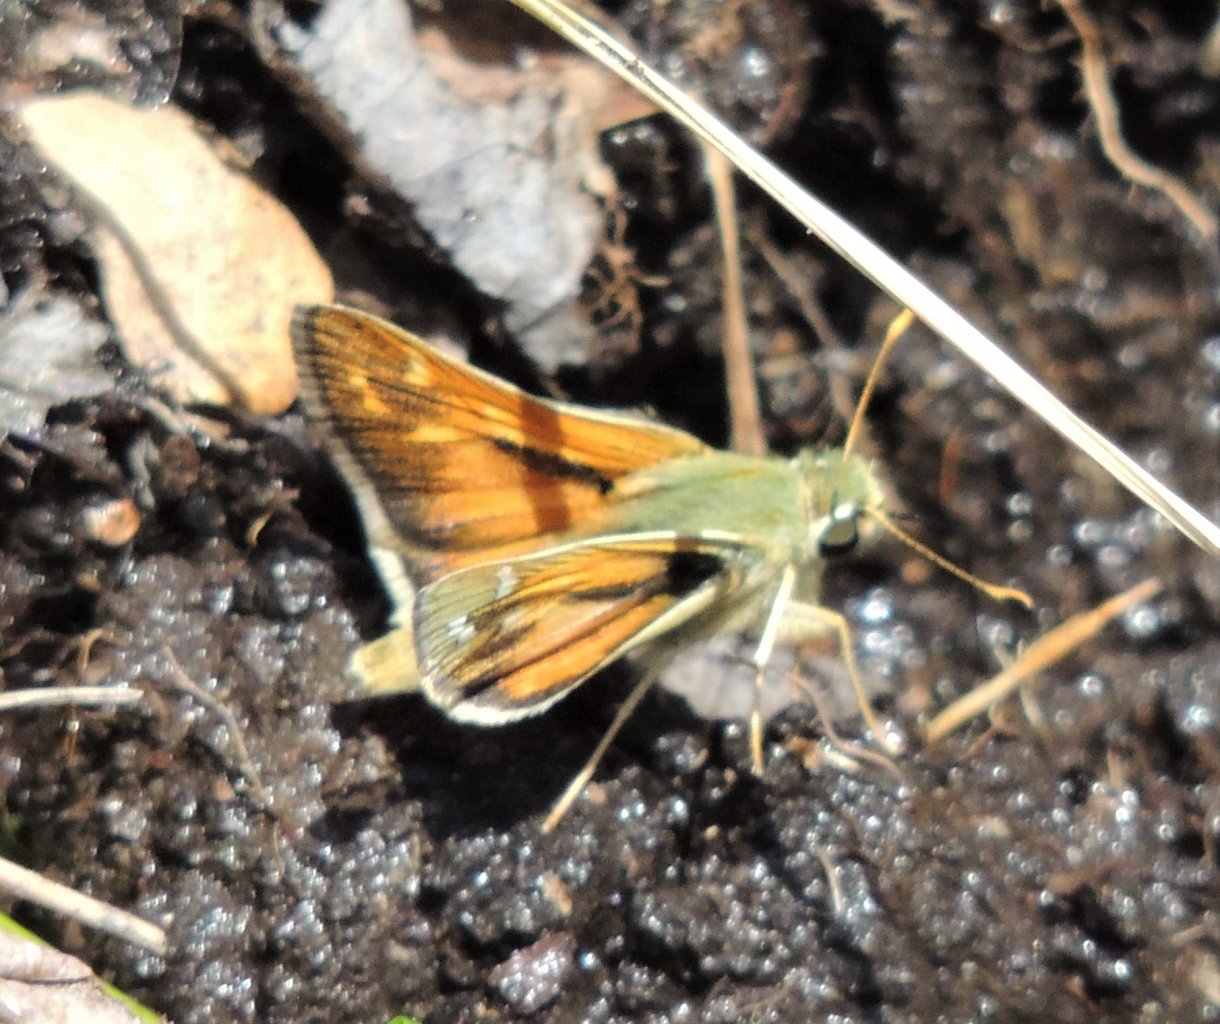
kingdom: Animalia
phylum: Arthropoda
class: Insecta
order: Lepidoptera
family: Hesperiidae
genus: Hesperia
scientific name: Hesperia comma
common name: Western Branded Skipper
